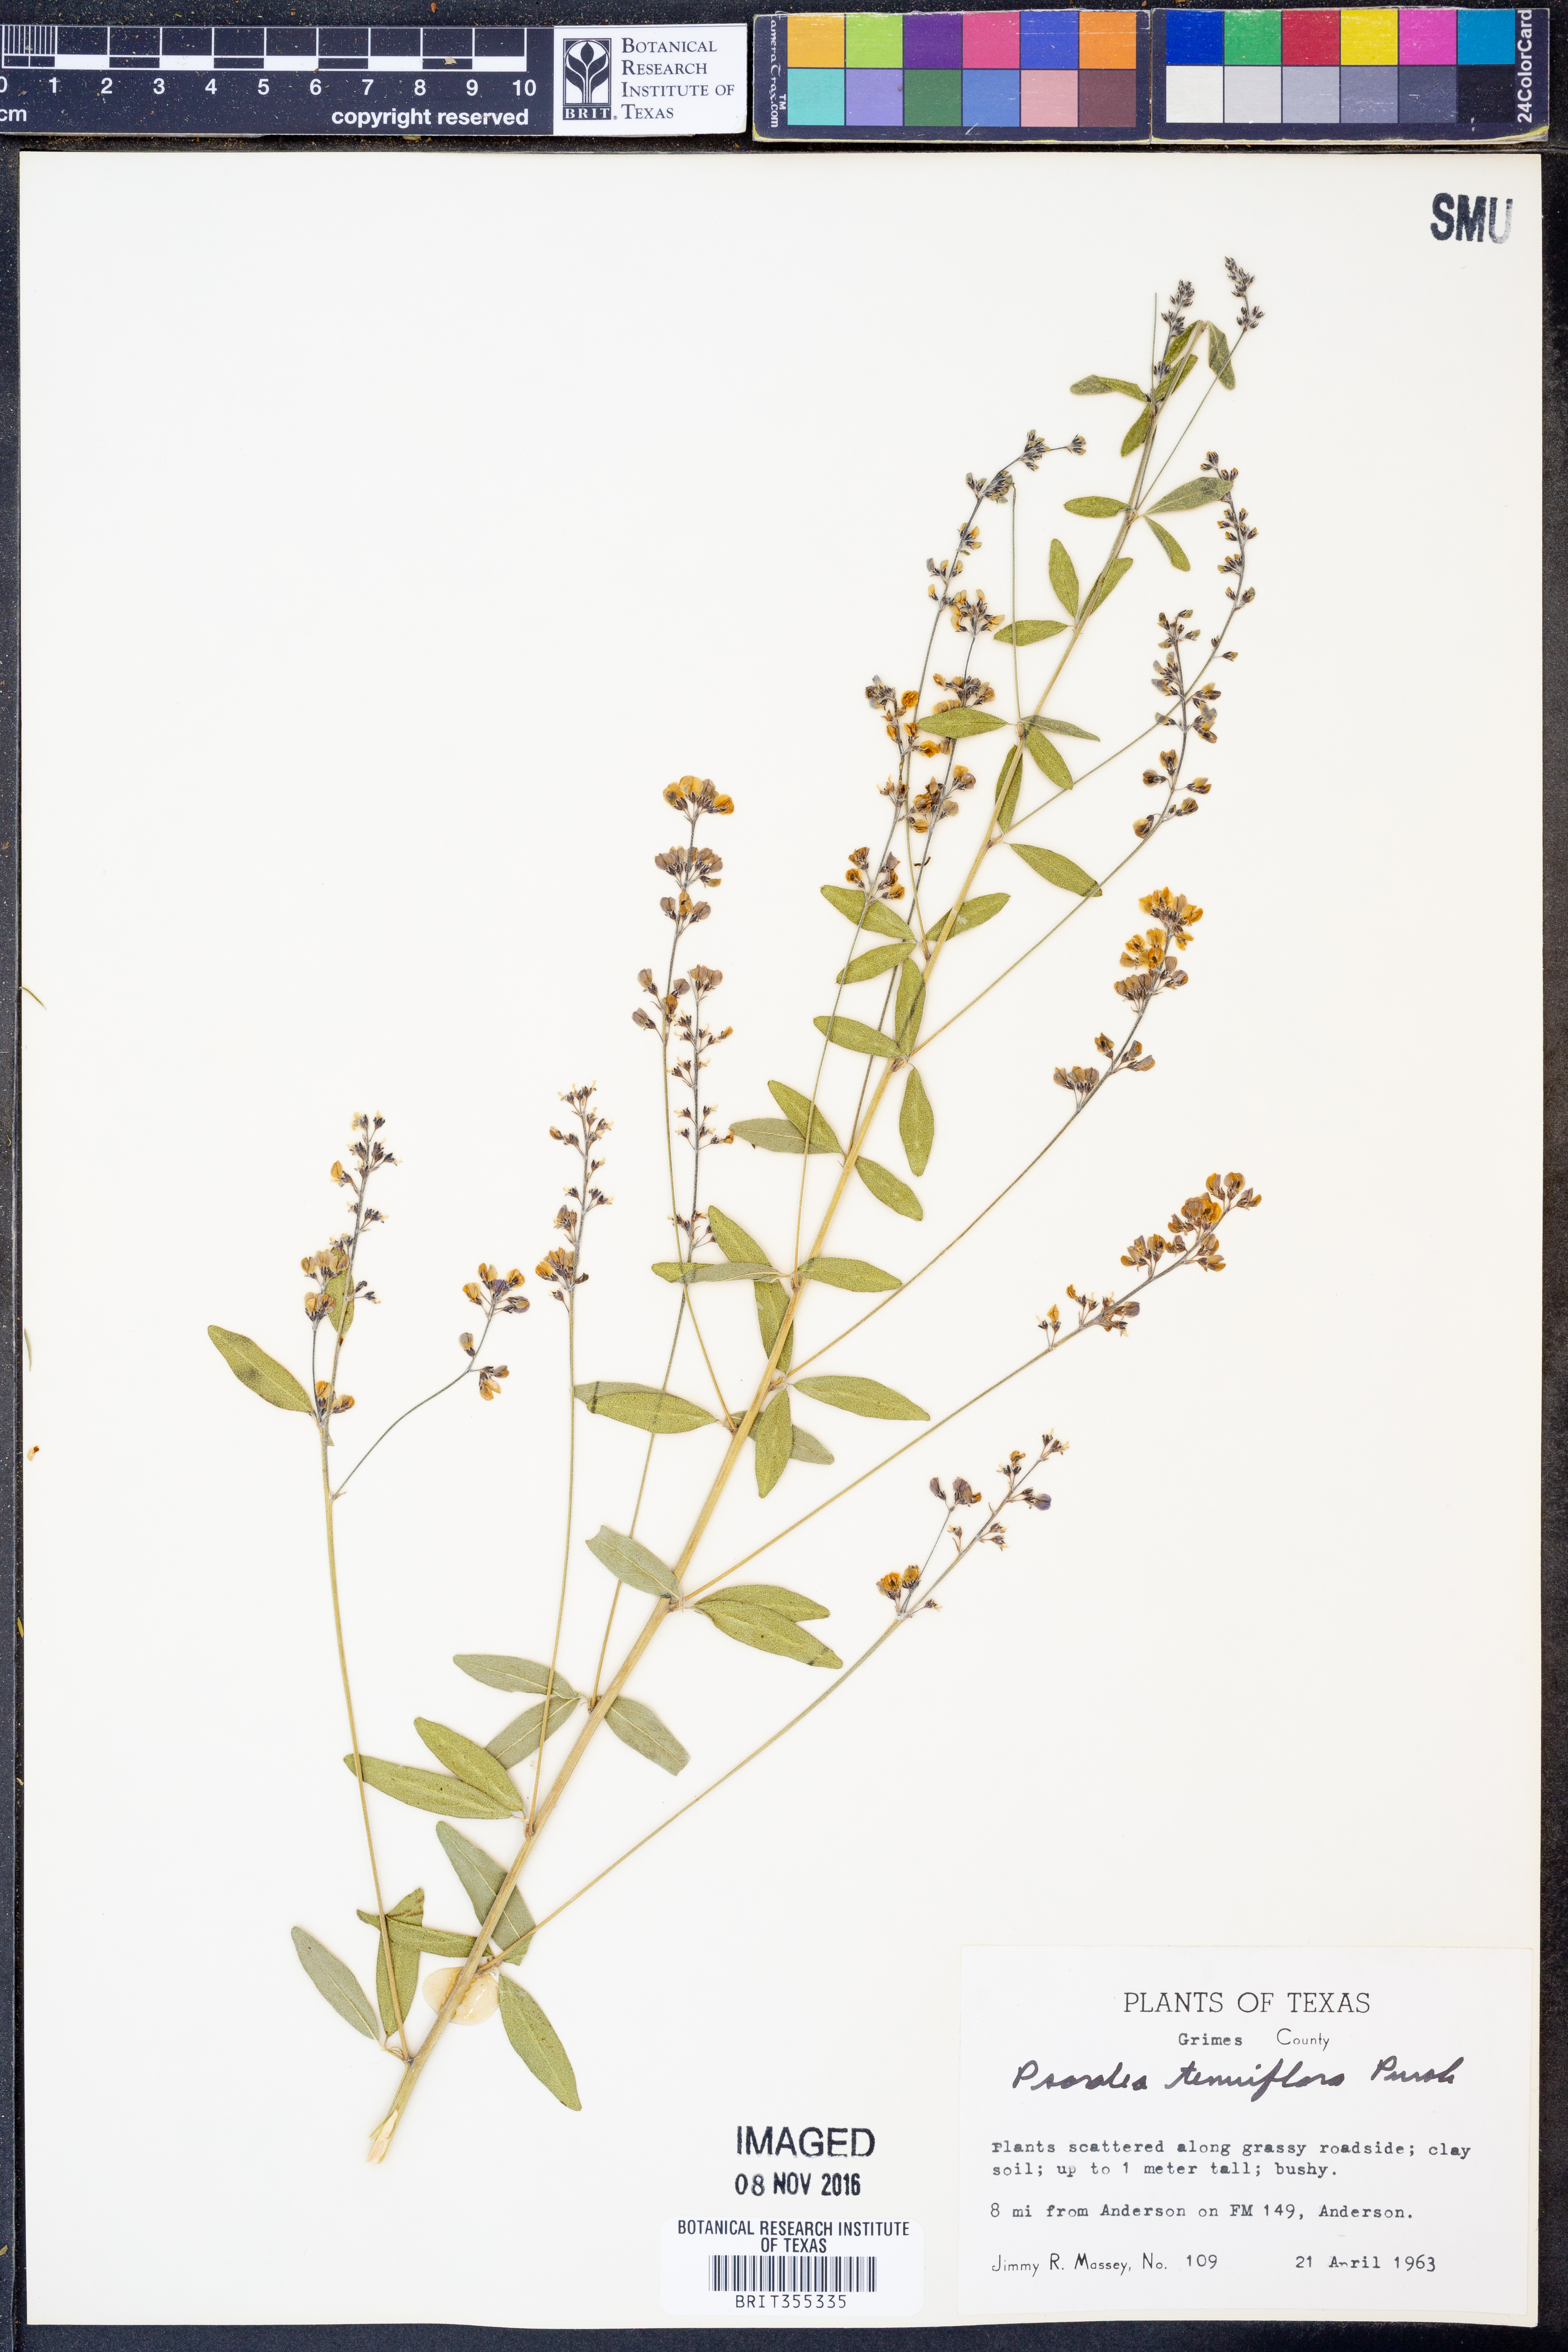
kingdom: Plantae
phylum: Tracheophyta
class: Magnoliopsida
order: Fabales
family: Fabaceae
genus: Pediomelum
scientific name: Pediomelum tenuiflorum
